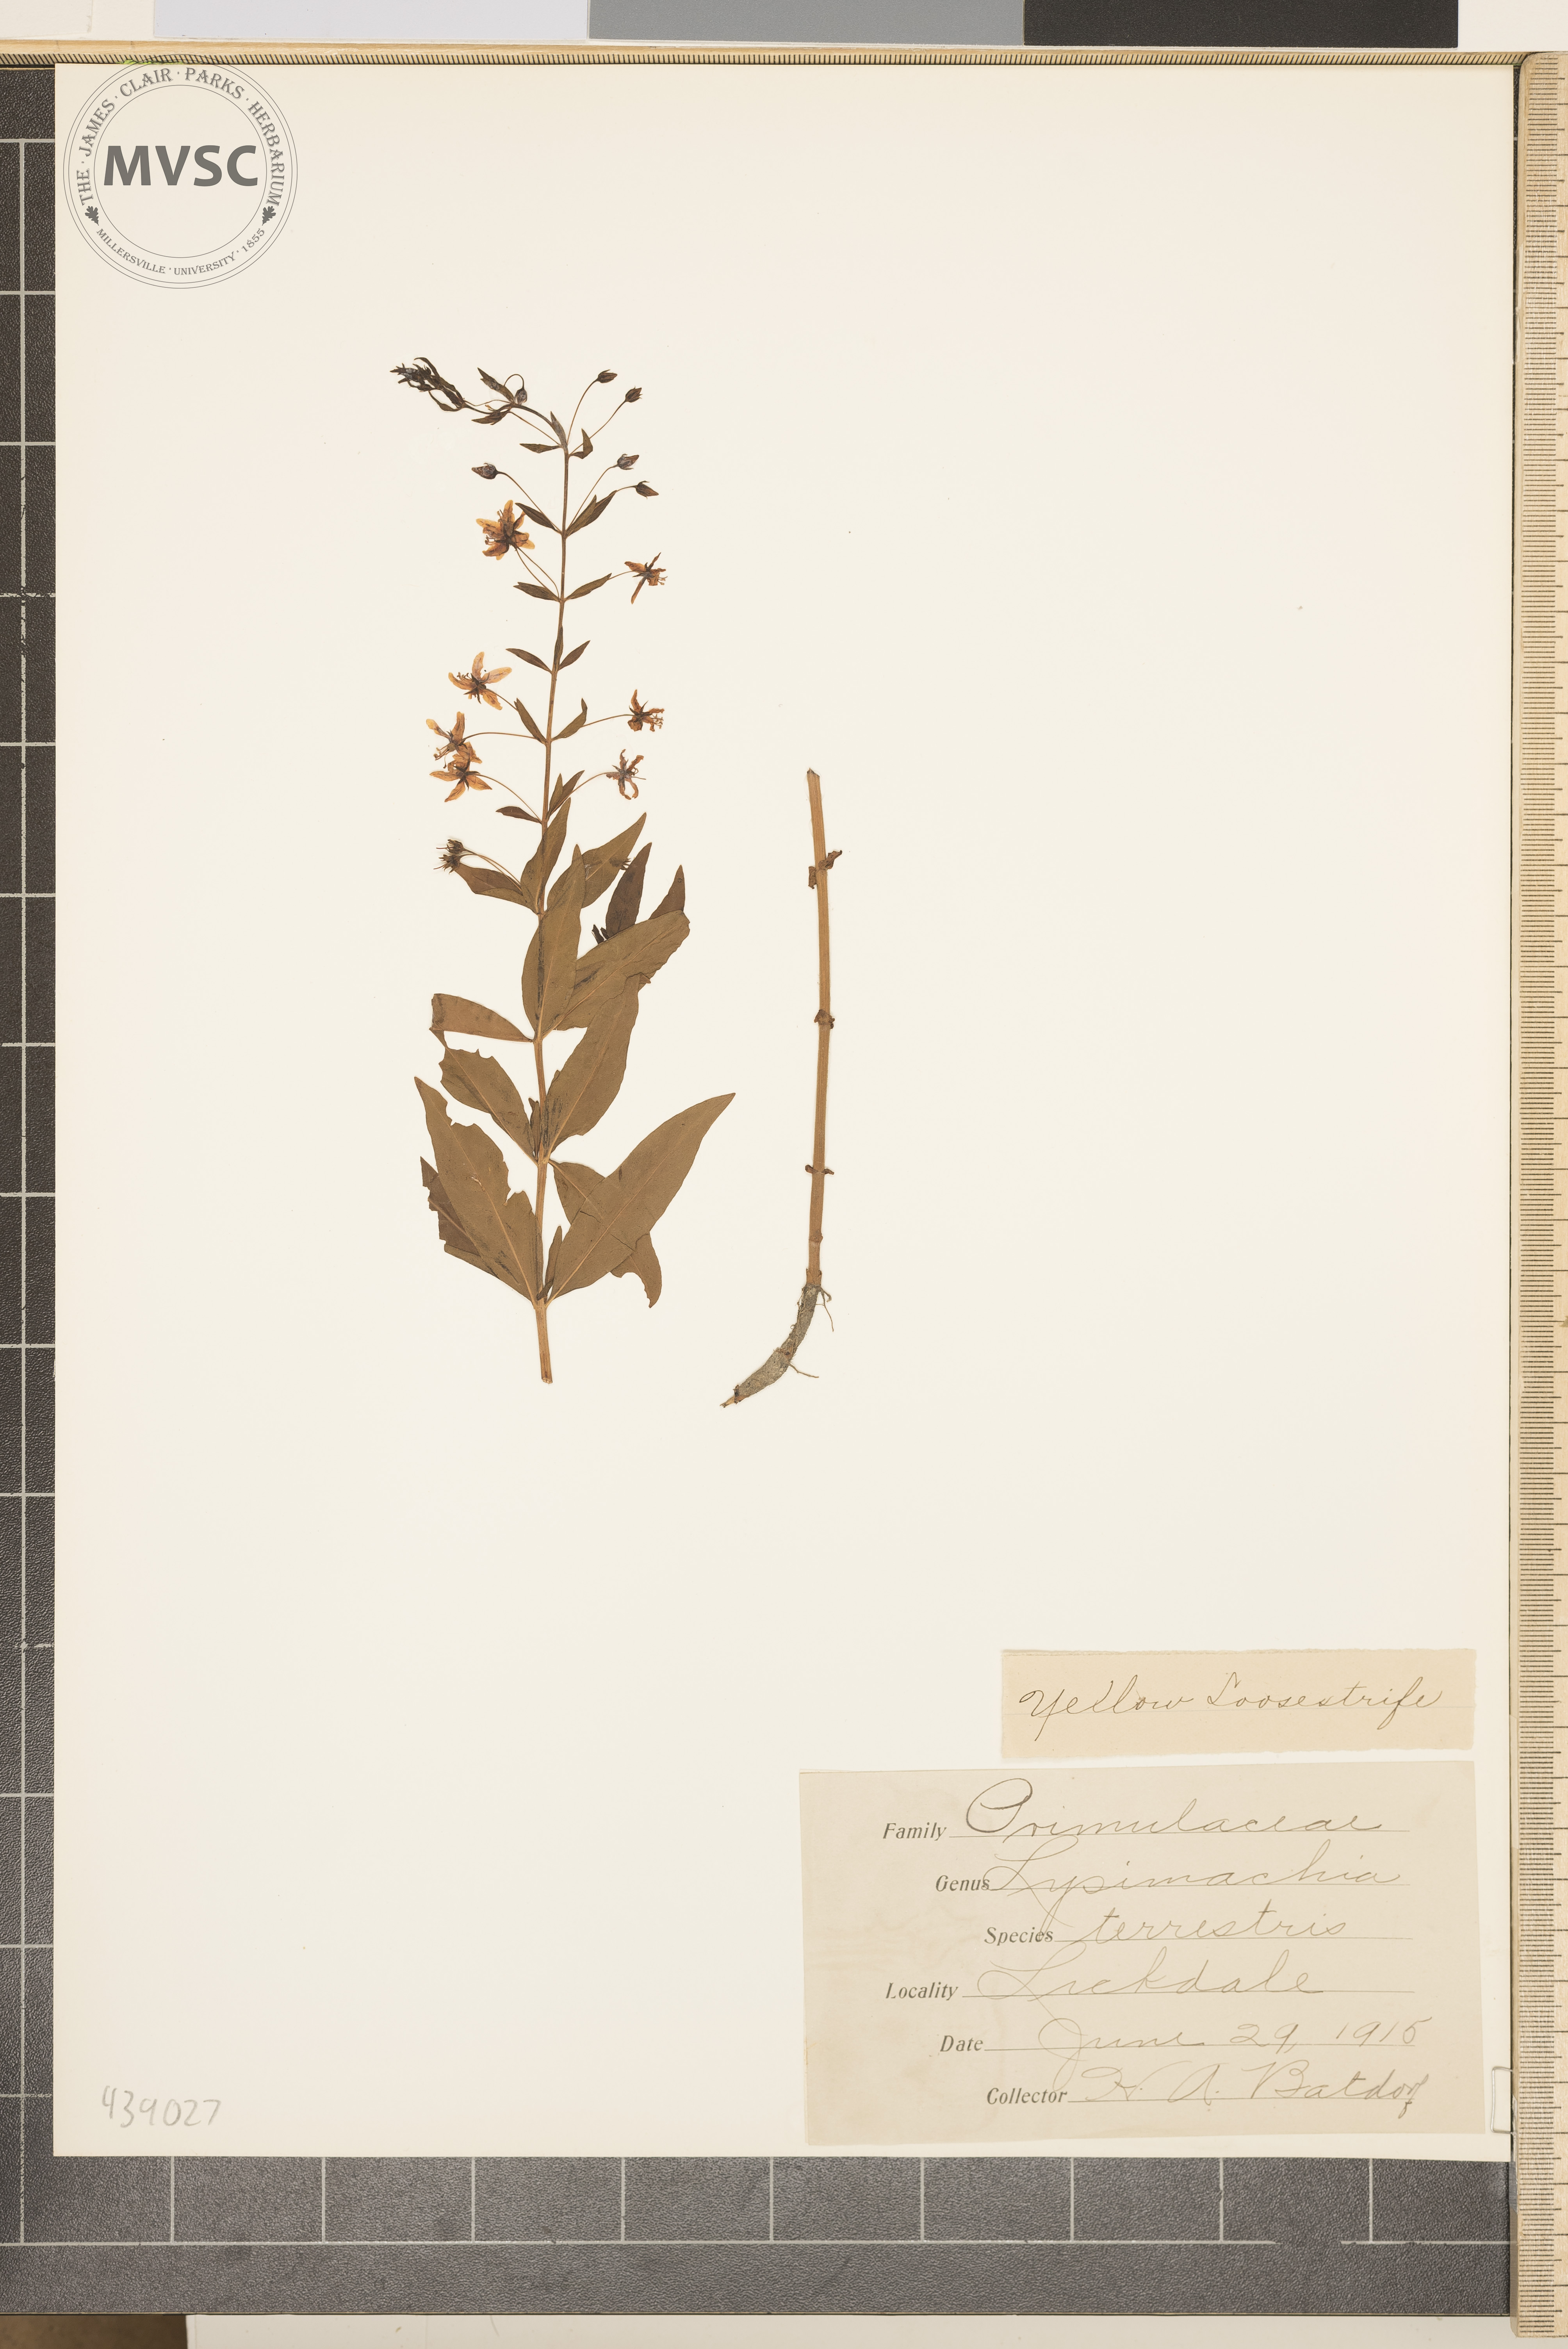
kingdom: Plantae
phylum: Tracheophyta
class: Magnoliopsida
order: Ericales
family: Primulaceae
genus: Lysimachia
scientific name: Lysimachia terrestris
